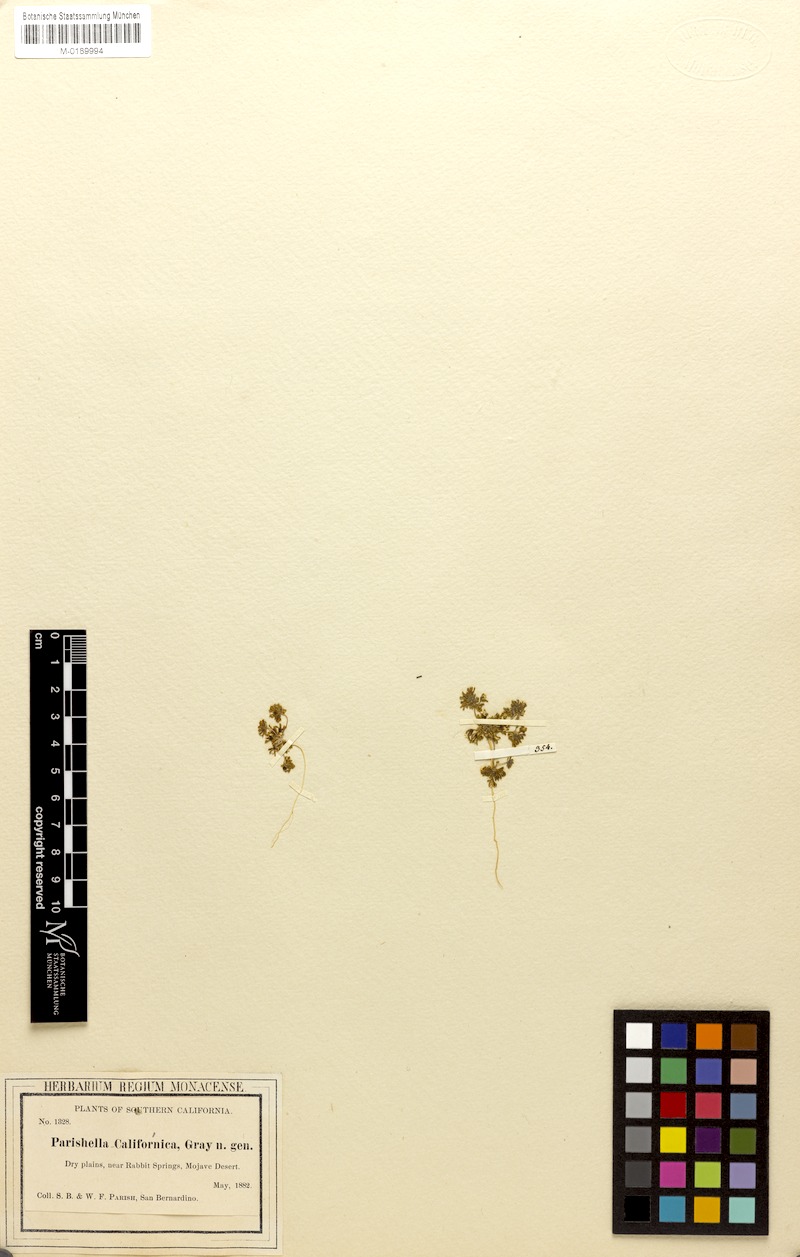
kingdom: Plantae
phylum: Tracheophyta
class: Magnoliopsida
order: Asterales
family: Campanulaceae
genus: Nemacladus
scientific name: Nemacladus californicus
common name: Mojave dwarf threadplant
